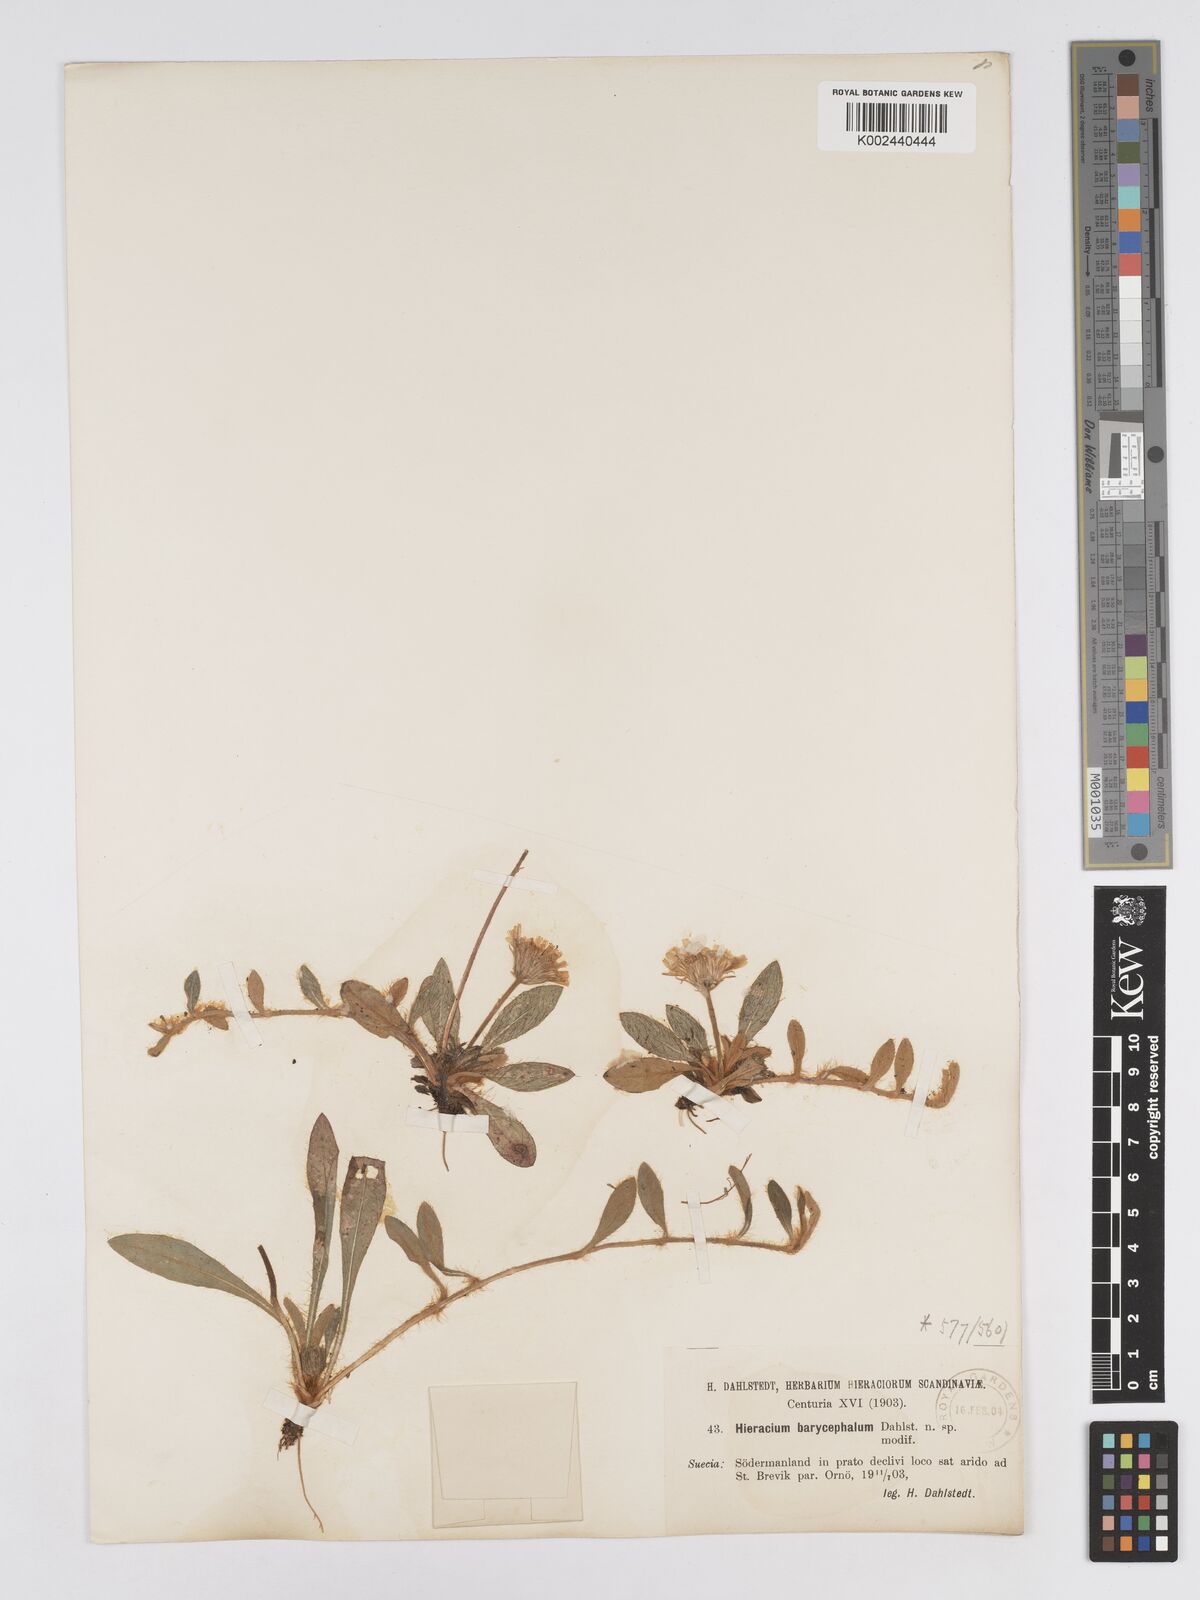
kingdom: Plantae
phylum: Tracheophyta
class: Magnoliopsida
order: Asterales
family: Asteraceae
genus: Hieracium
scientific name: Hieracium
